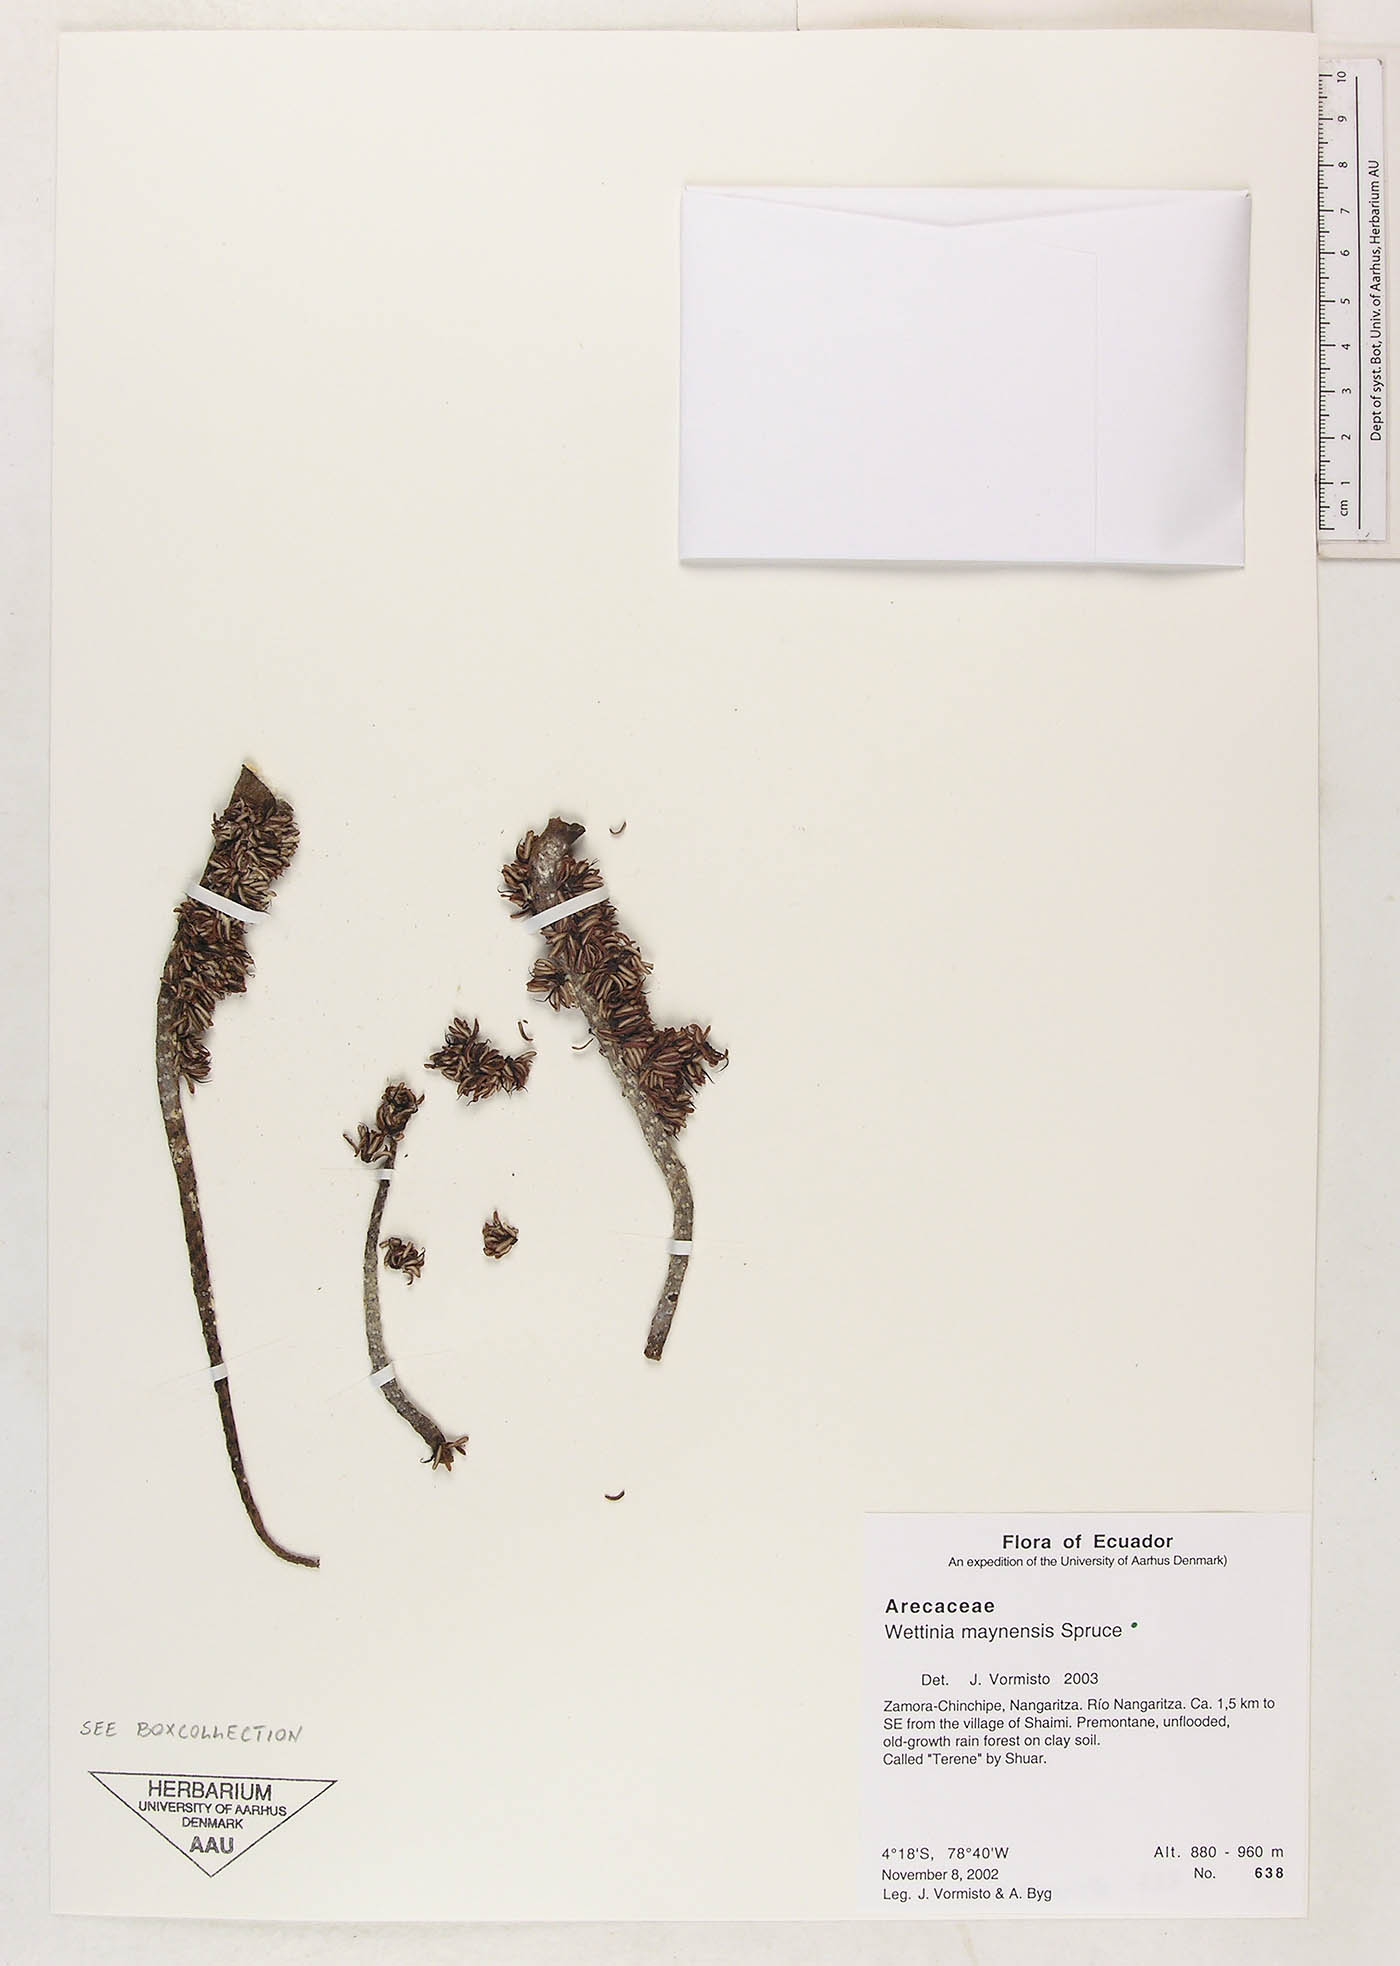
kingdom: Plantae
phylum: Tracheophyta
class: Liliopsida
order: Arecales
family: Arecaceae
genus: Wettinia
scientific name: Wettinia maynensis
